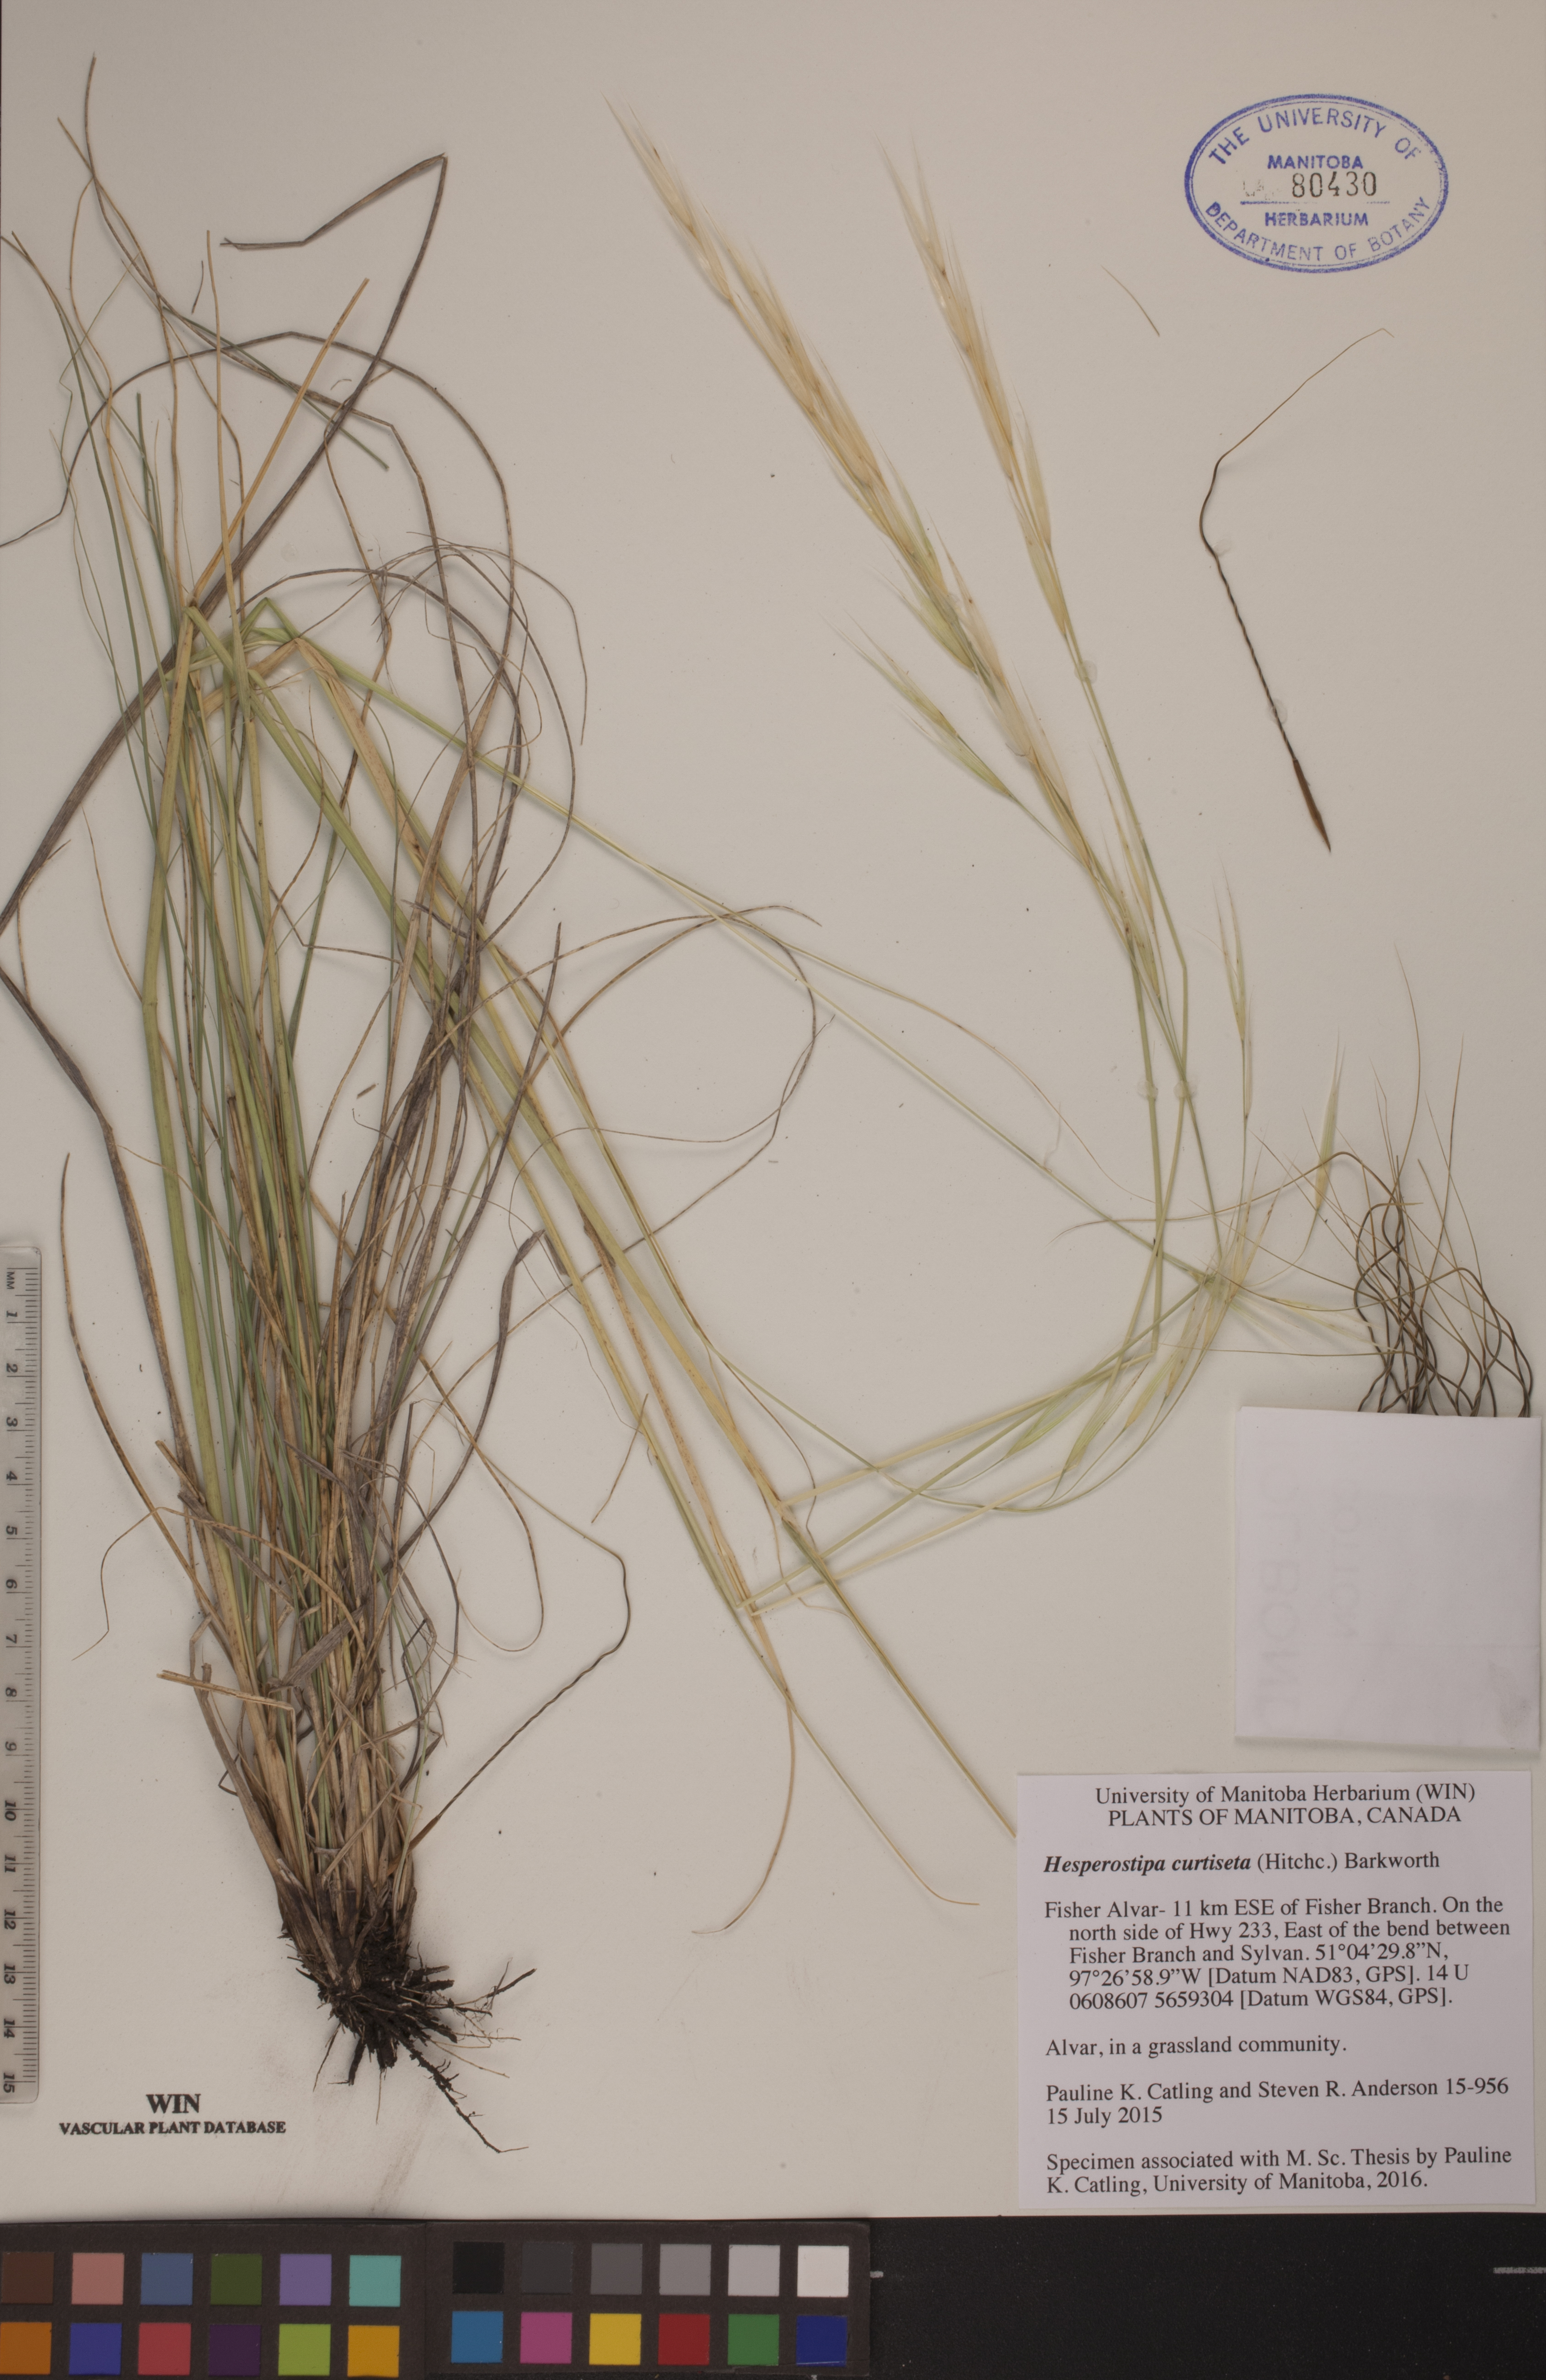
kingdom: Plantae
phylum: Tracheophyta
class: Liliopsida
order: Poales
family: Poaceae
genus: Hesperostipa
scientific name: Hesperostipa curtiseta
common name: Canada needle-and-thread grass
